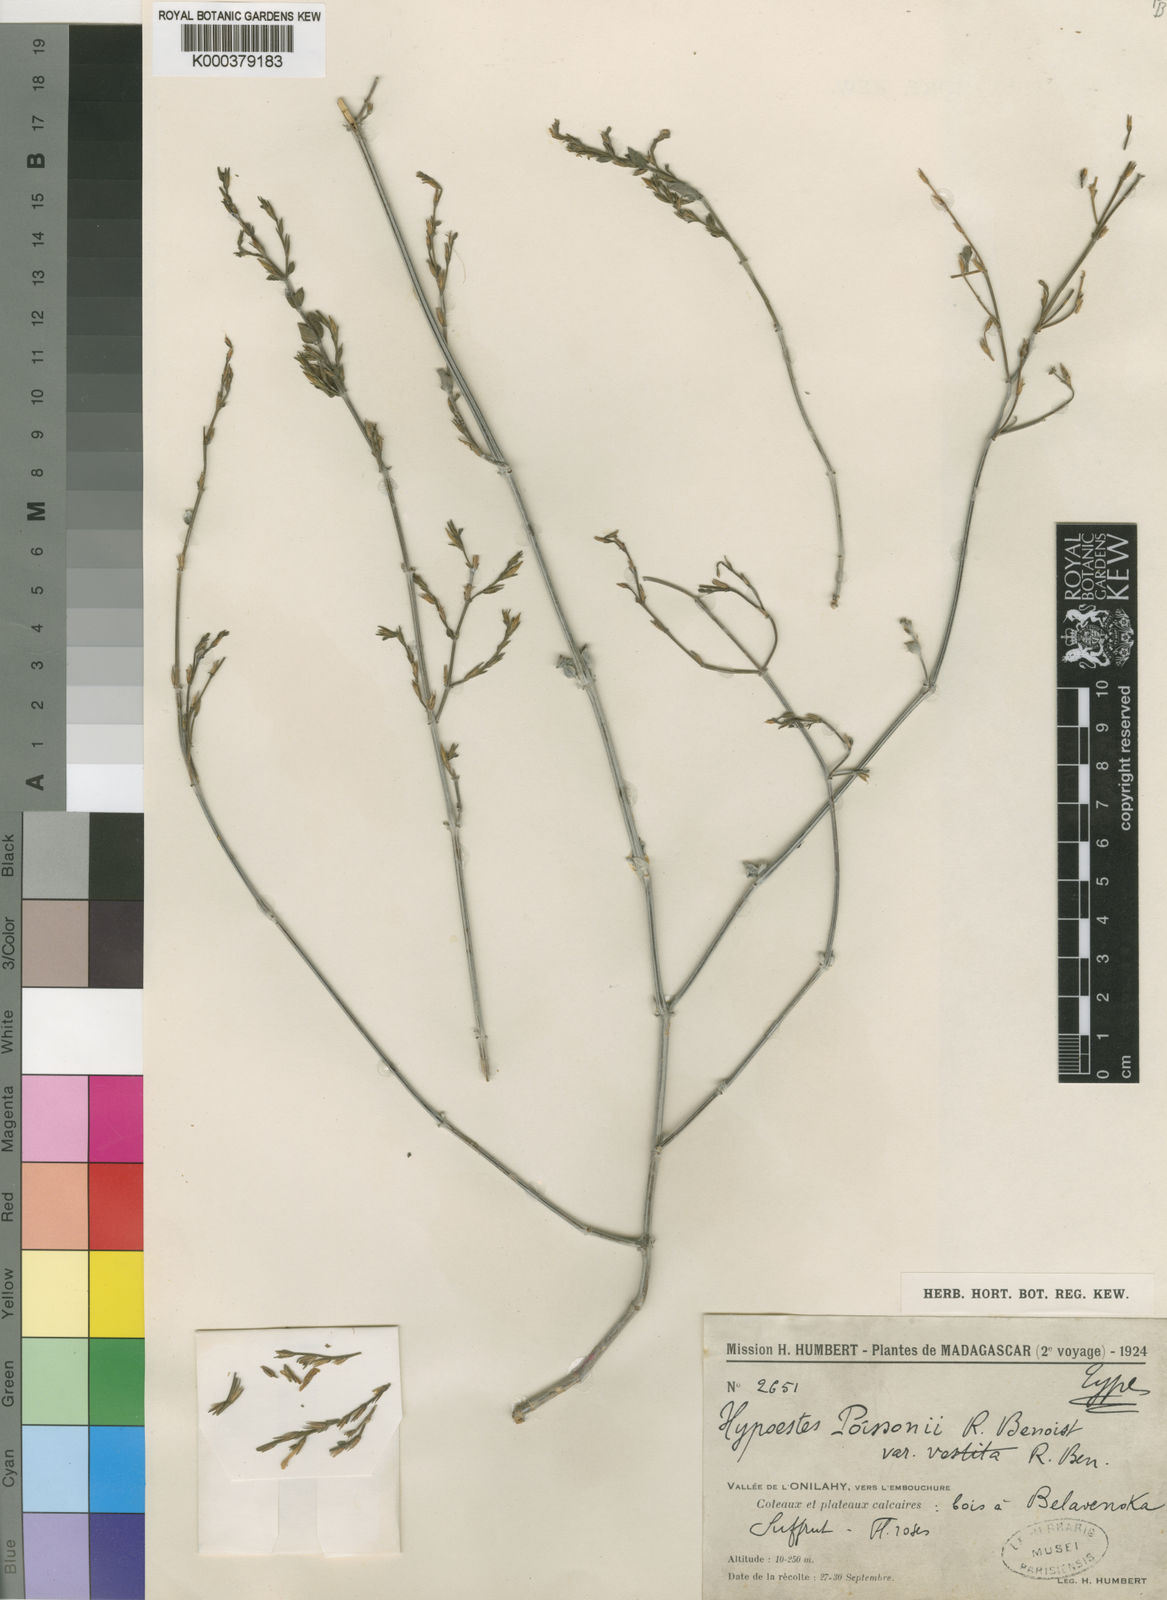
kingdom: Plantae
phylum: Tracheophyta
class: Magnoliopsida
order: Lamiales
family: Acanthaceae
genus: Hypoestes
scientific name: Hypoestes poissonii
